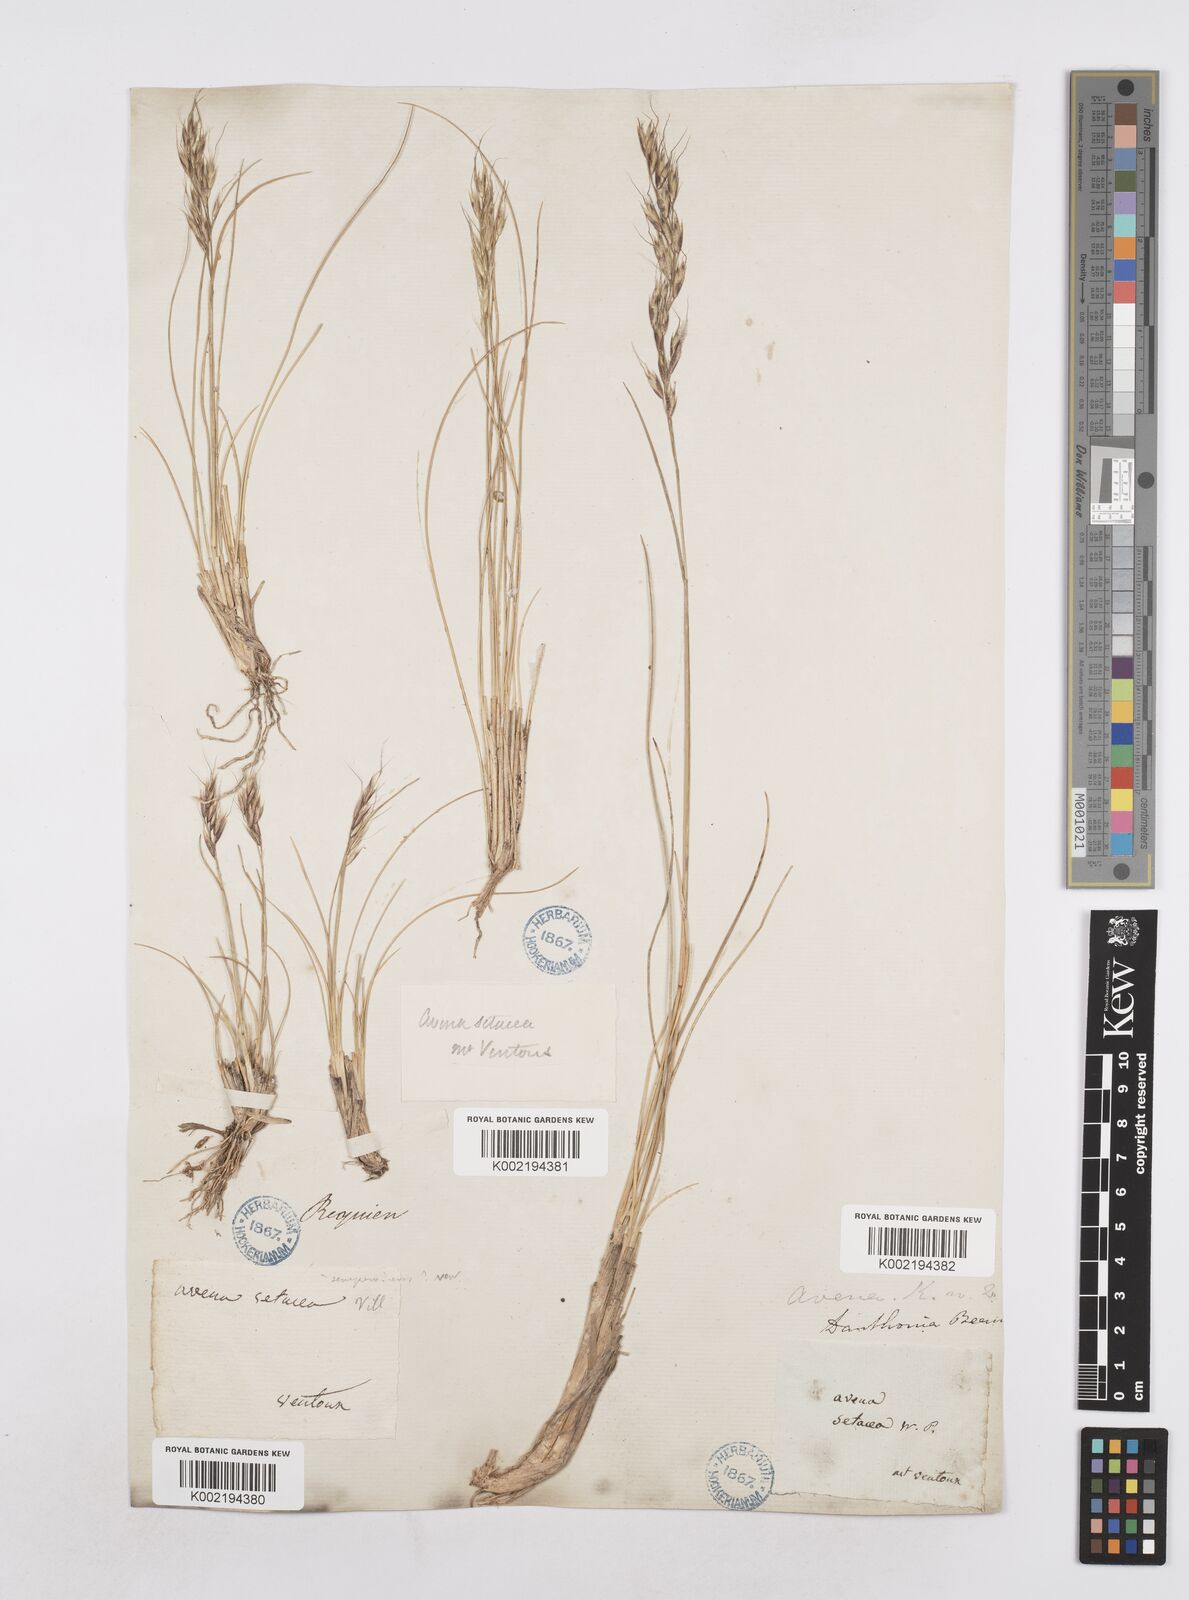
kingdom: Plantae
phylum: Tracheophyta
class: Liliopsida
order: Poales
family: Poaceae
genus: Helictotrichon
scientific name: Helictotrichon setaceum
